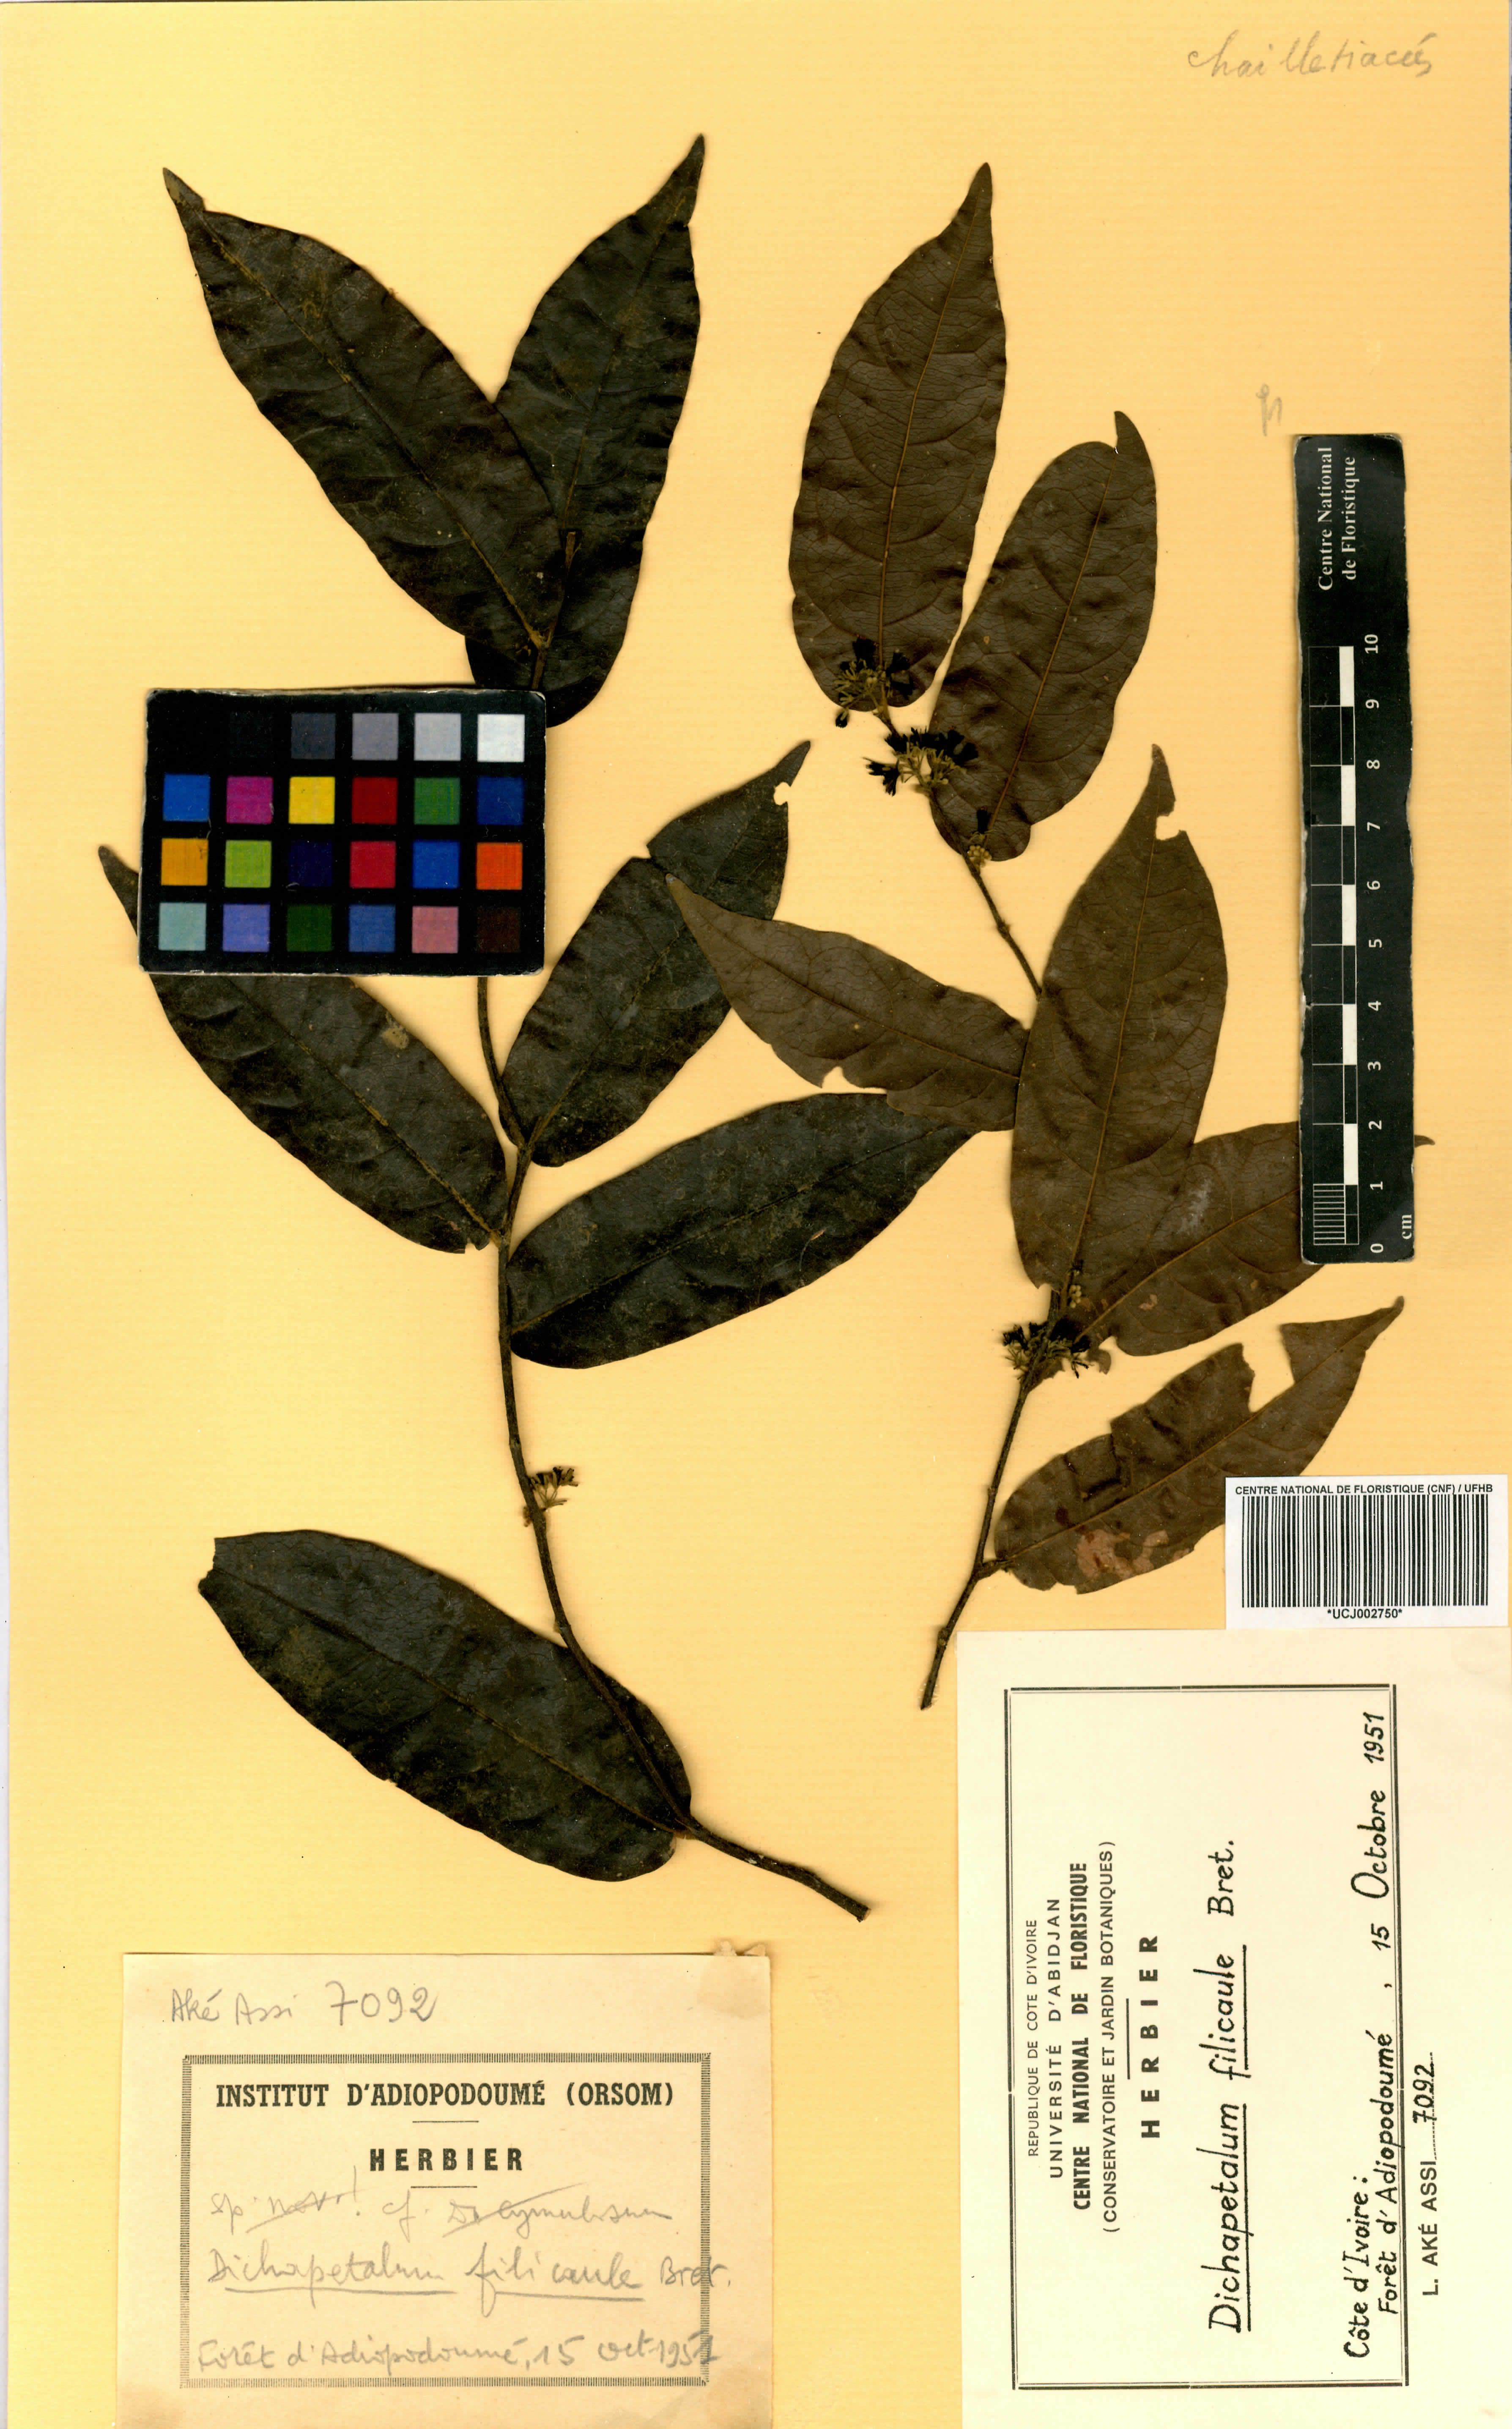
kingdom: Plantae
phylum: Tracheophyta
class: Magnoliopsida
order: Malpighiales
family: Dichapetalaceae
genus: Dichapetalum
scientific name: Dichapetalum filicaule
